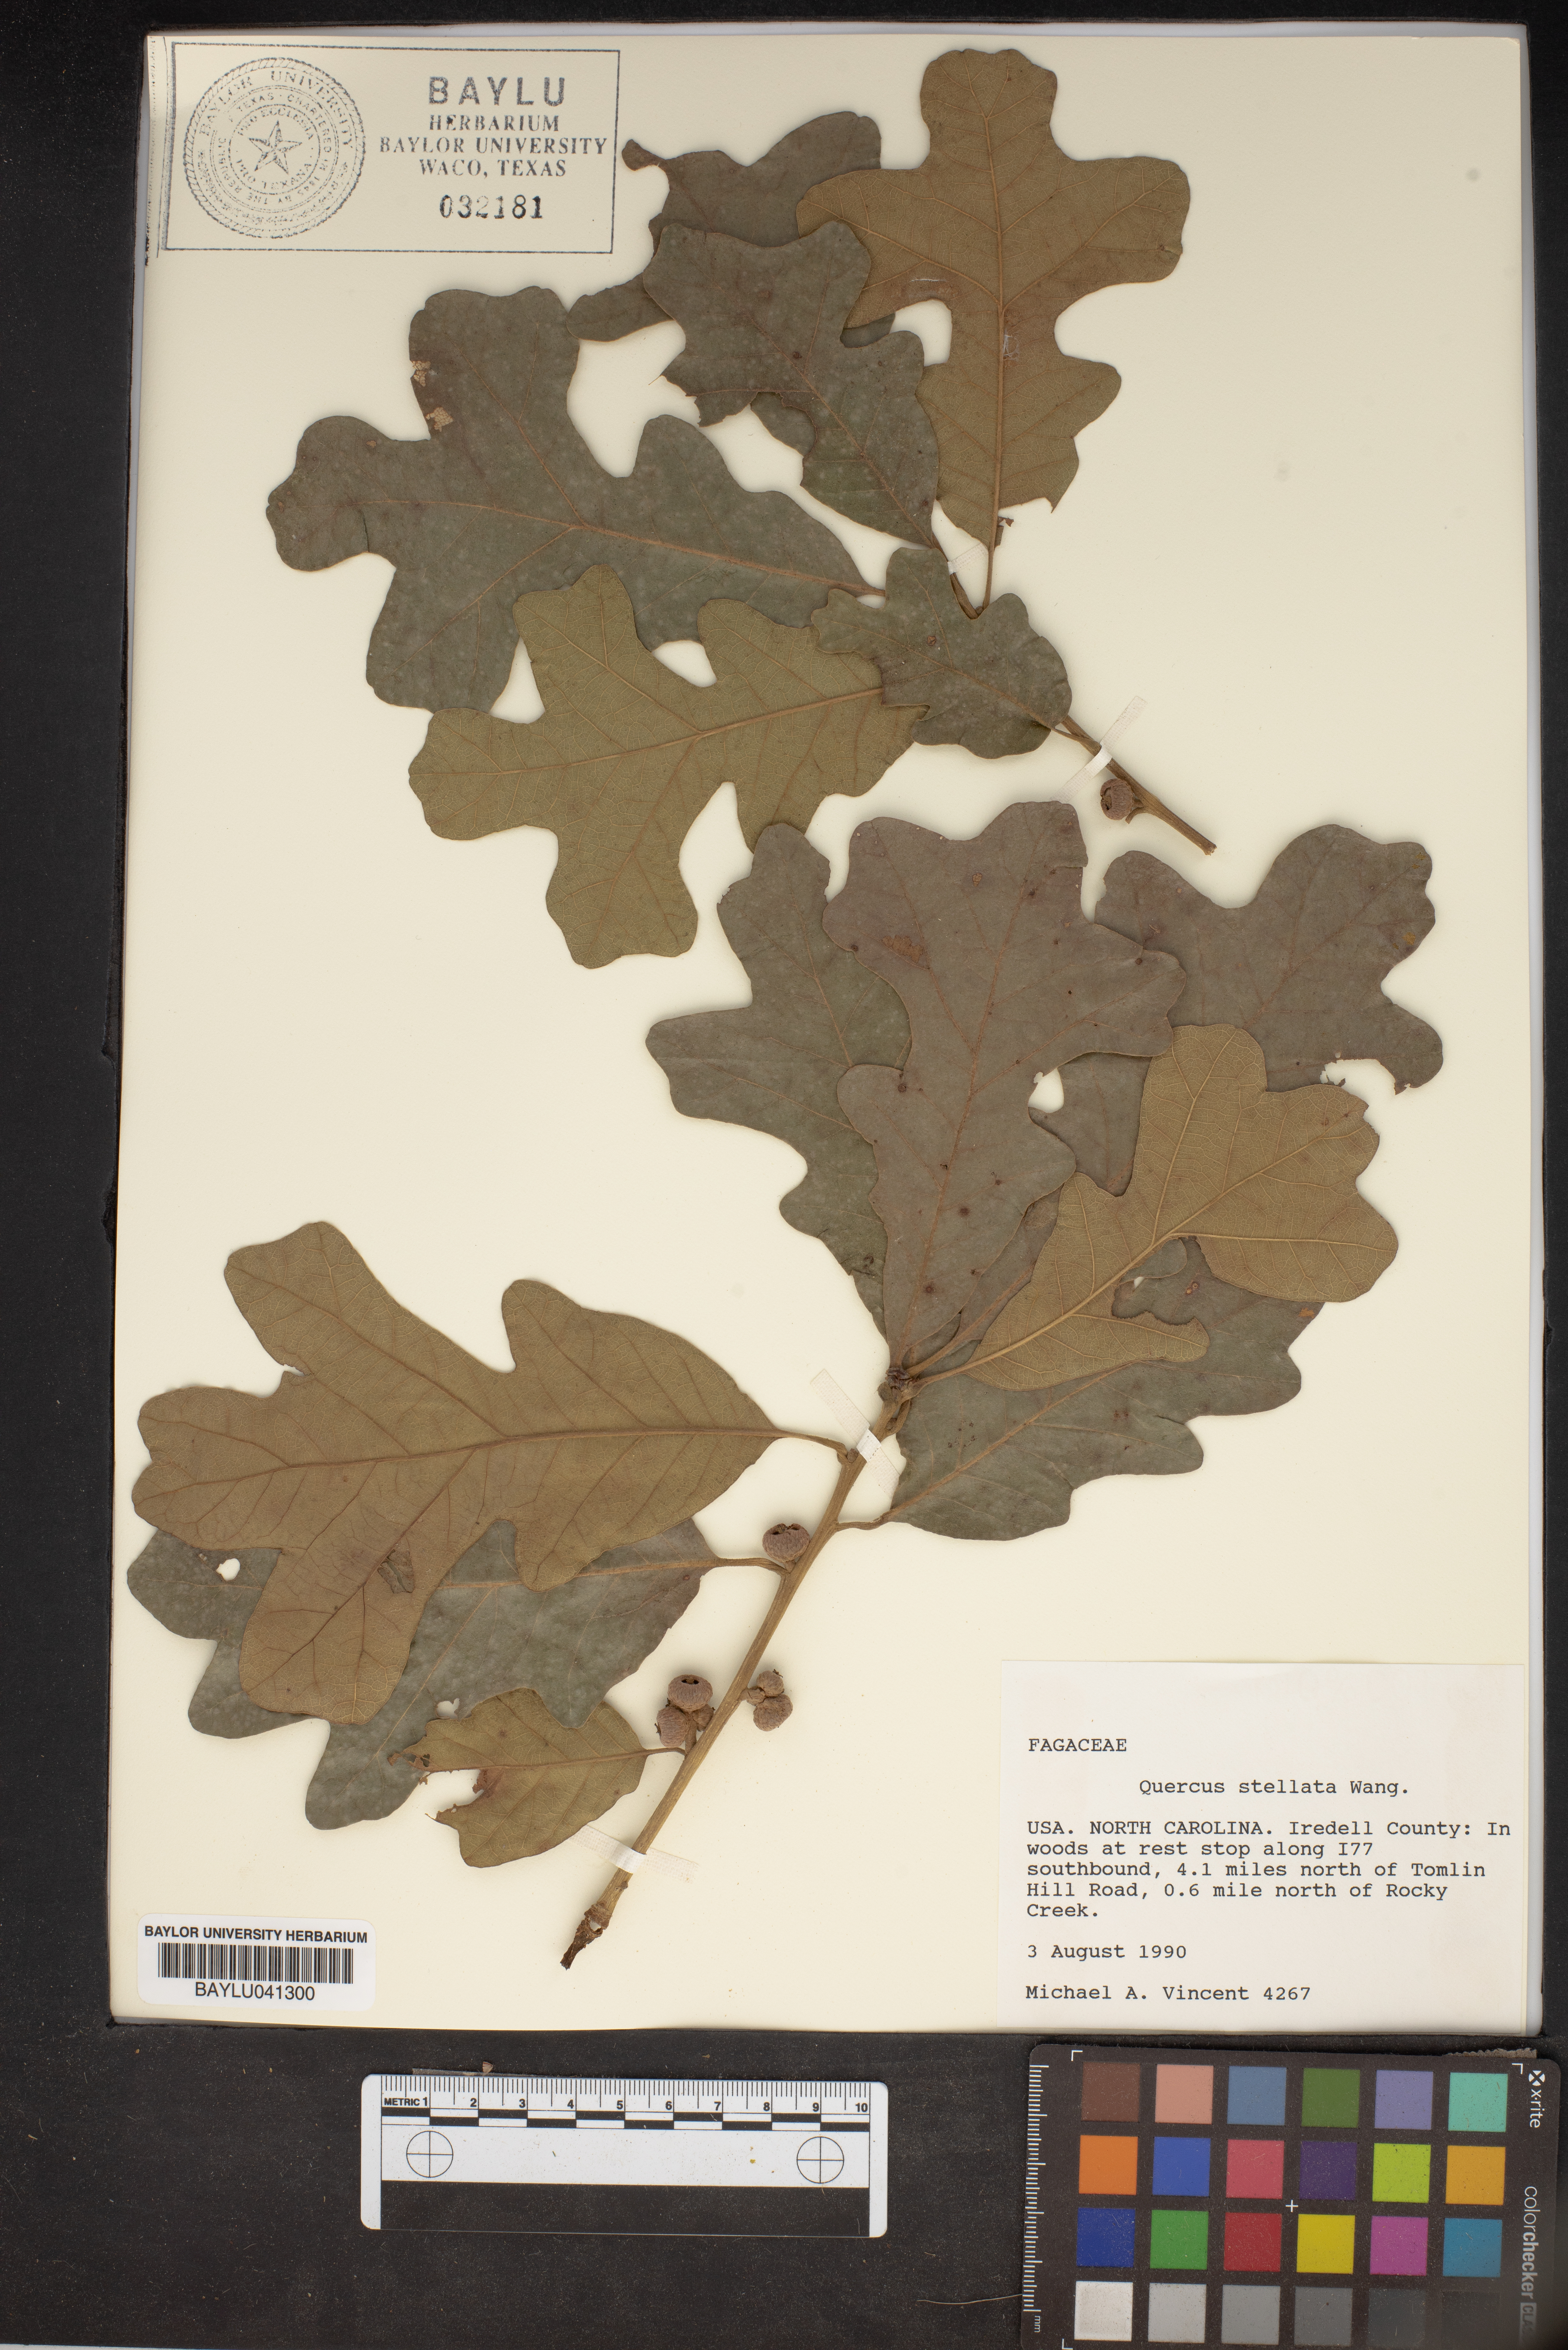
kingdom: Plantae
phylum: Tracheophyta
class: Magnoliopsida
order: Fagales
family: Fagaceae
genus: Quercus
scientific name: Quercus stellata
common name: Post oak
